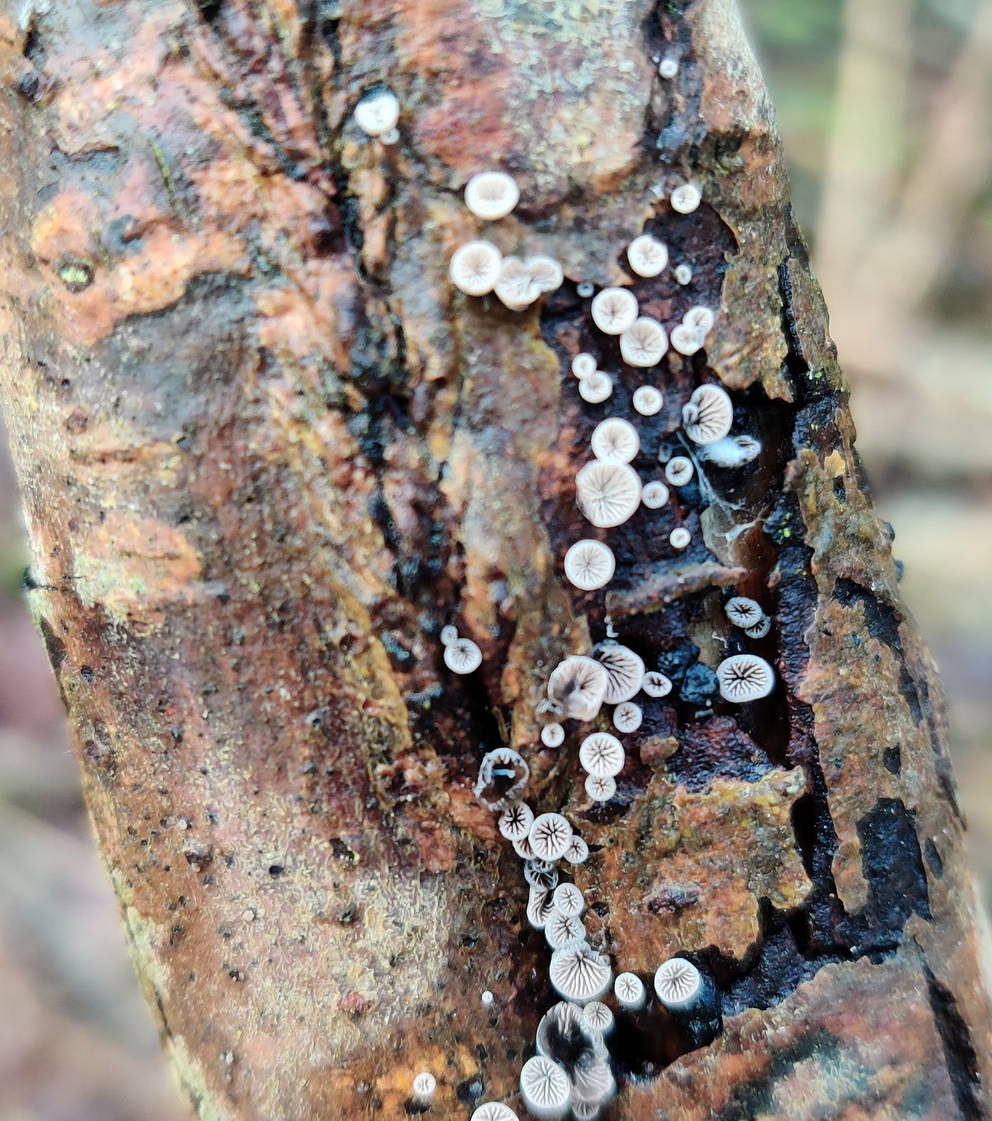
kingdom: Fungi
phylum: Basidiomycota
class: Agaricomycetes
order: Agaricales
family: Pleurotaceae
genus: Resupinatus
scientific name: Resupinatus applicatus
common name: lysfiltet barkhat
